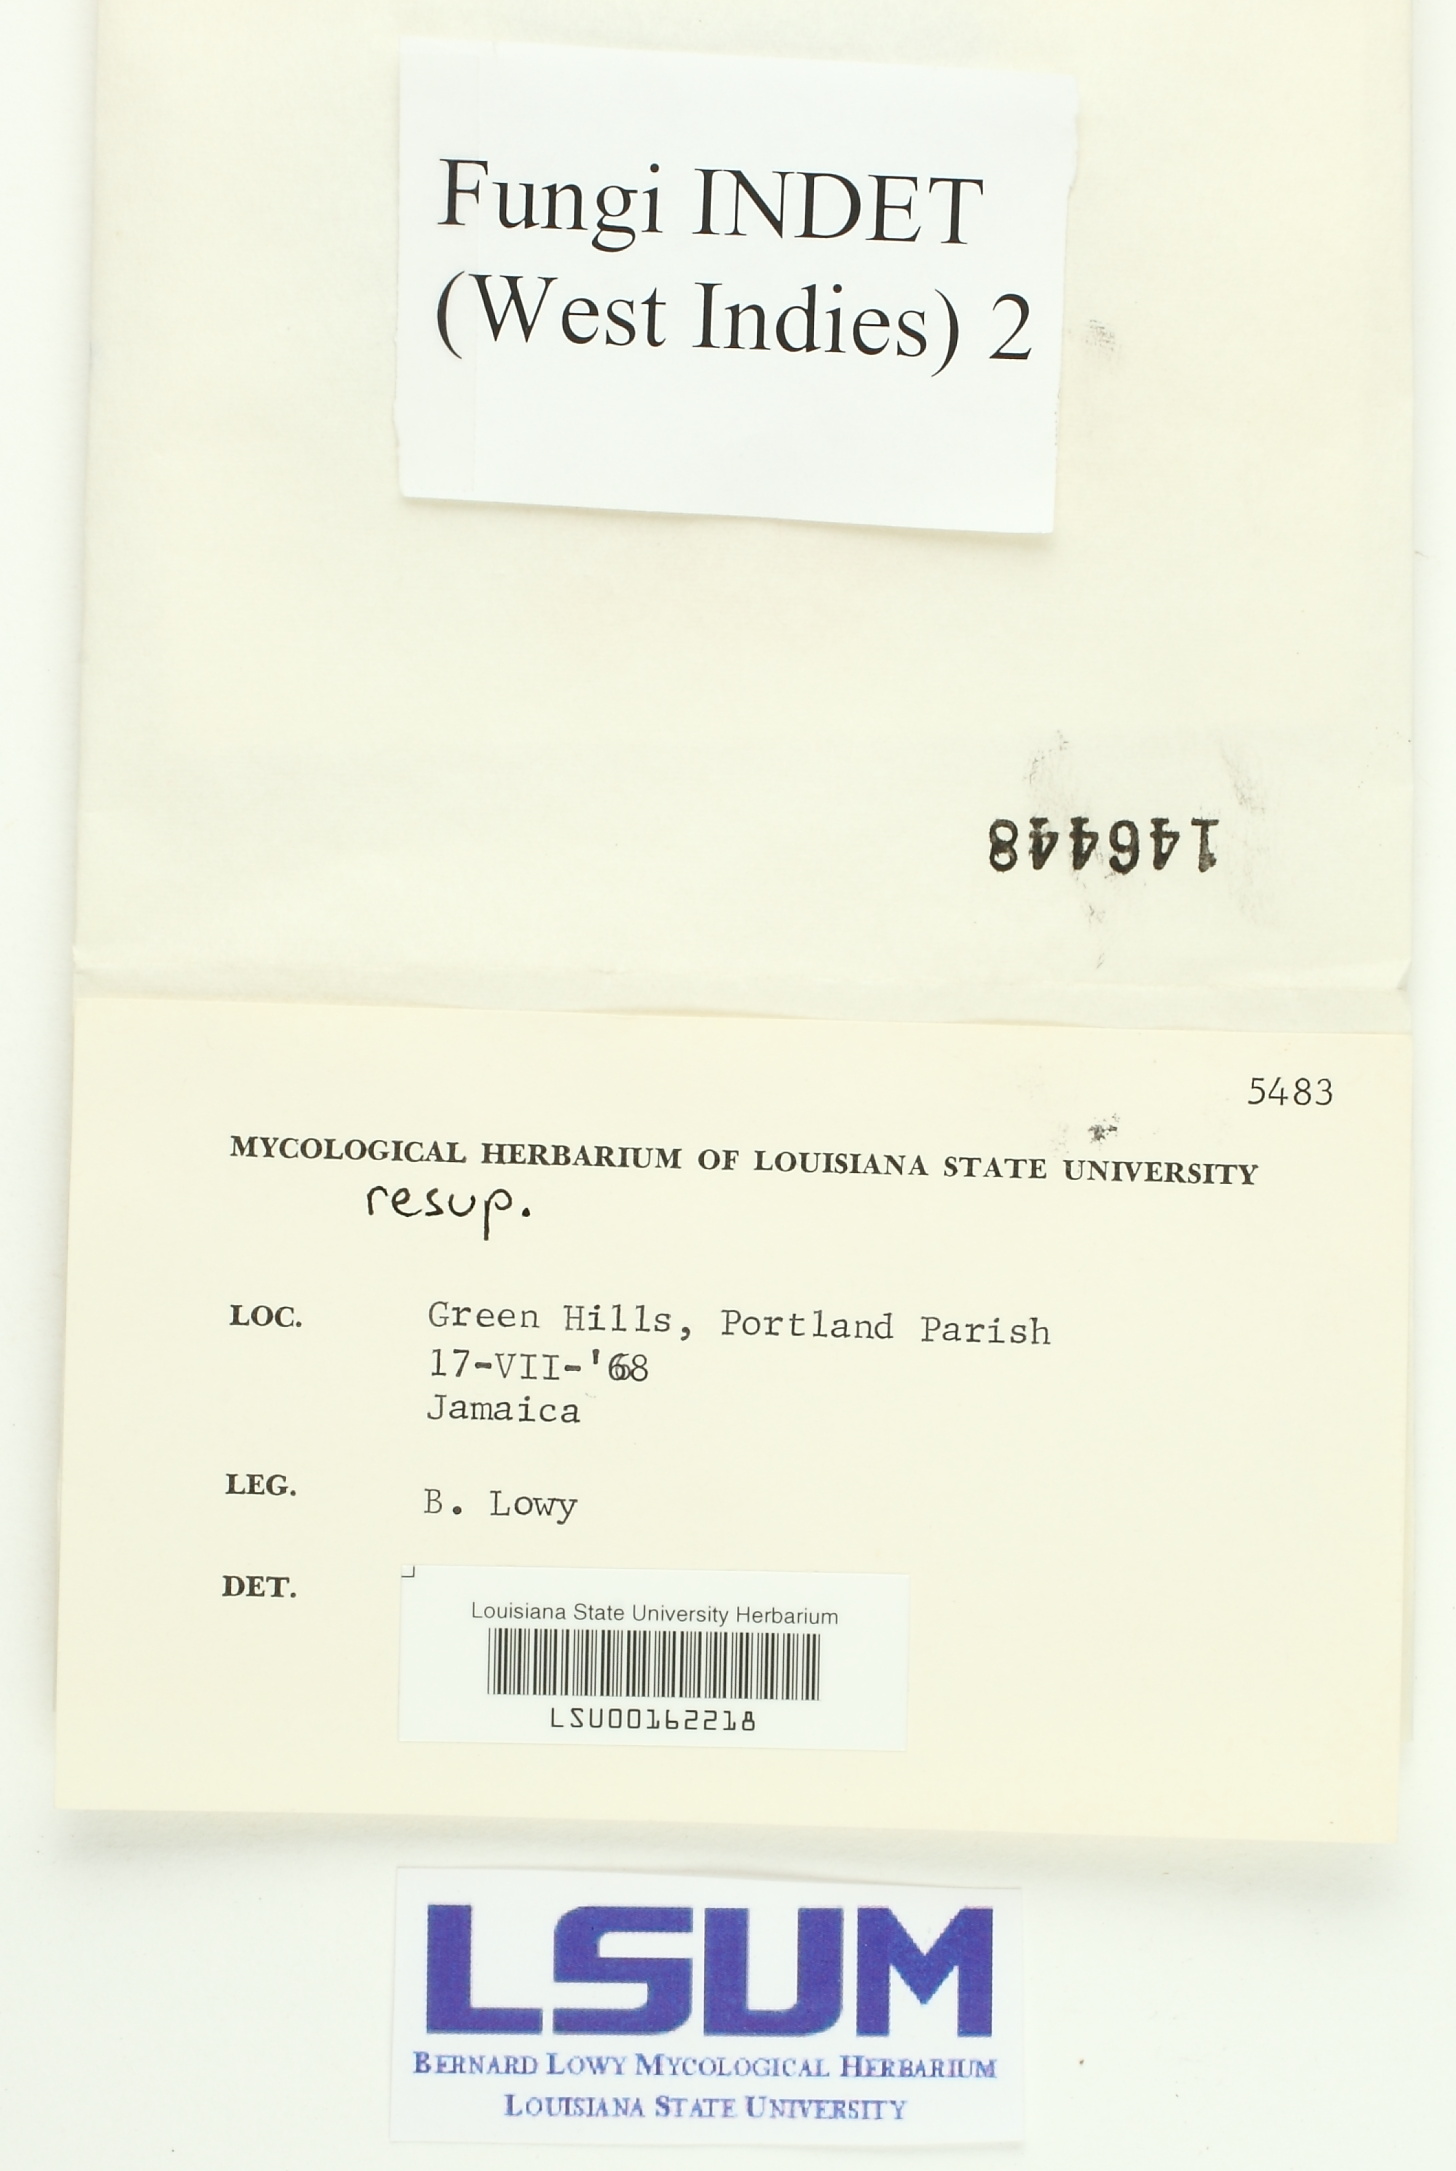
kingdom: Fungi
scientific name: Fungi
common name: Fungi
